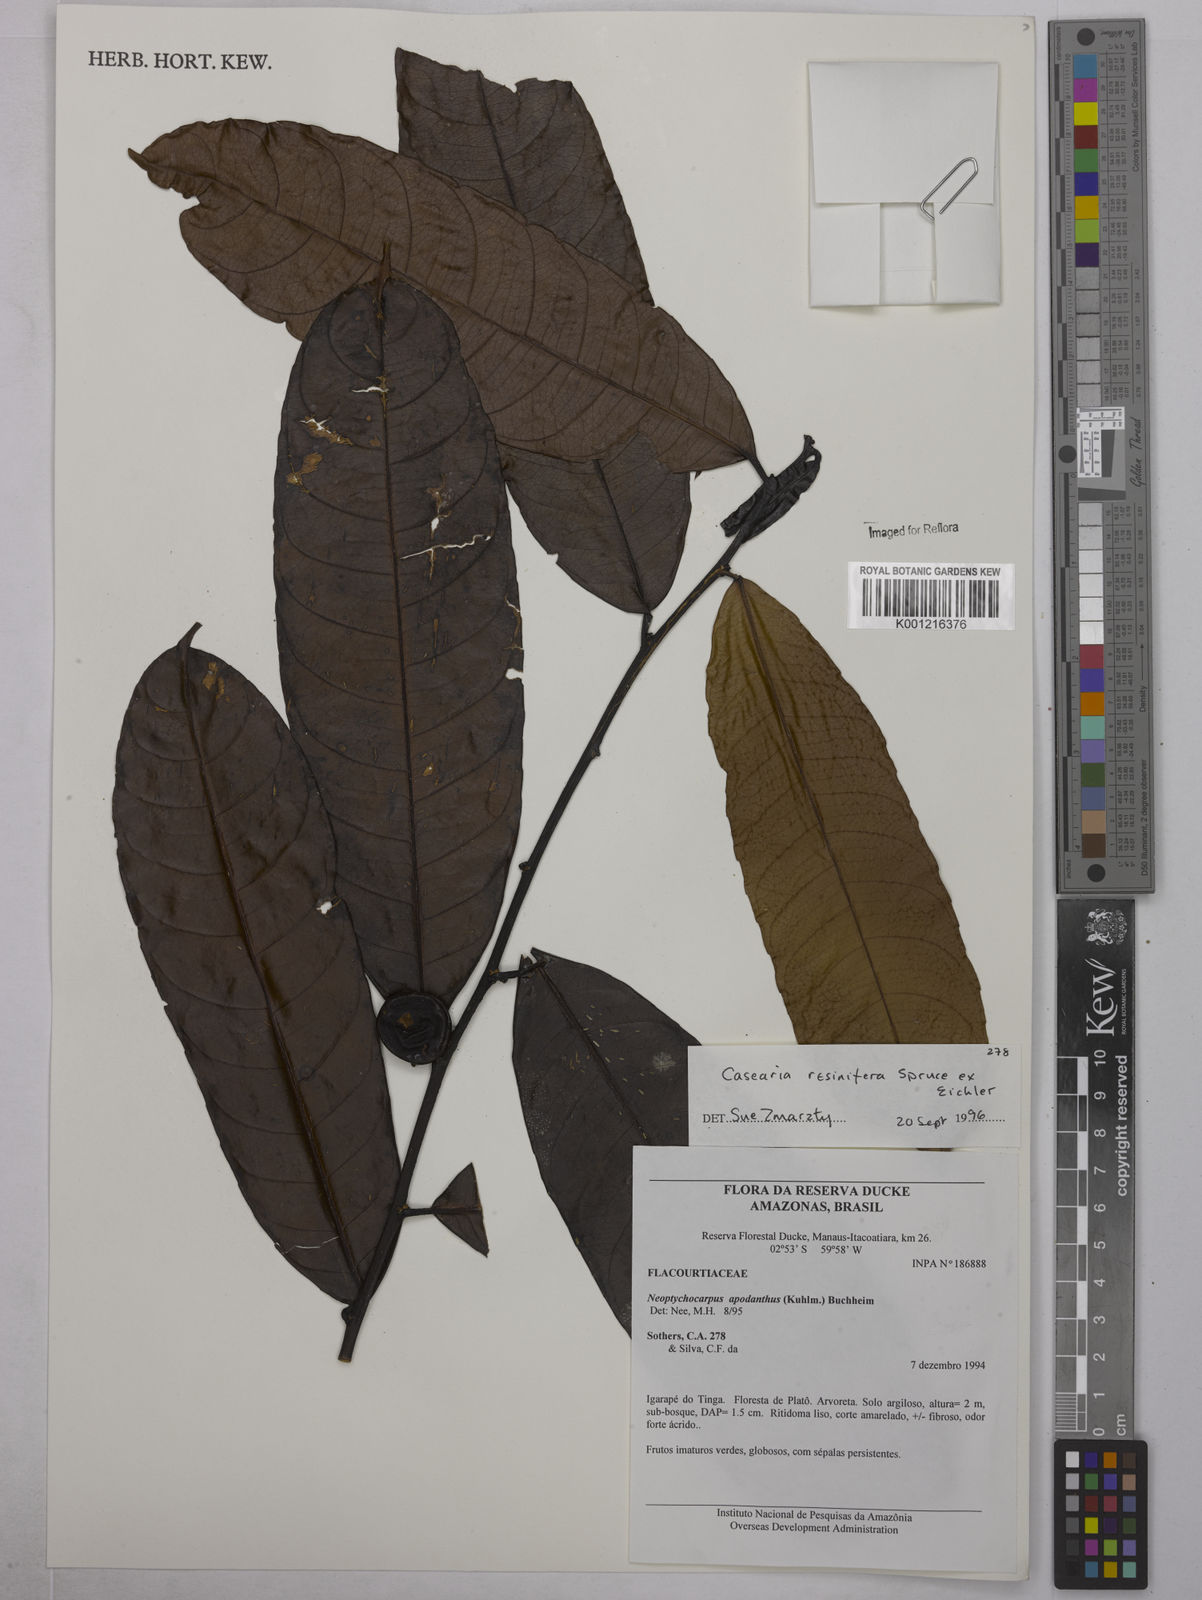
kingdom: Plantae
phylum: Tracheophyta
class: Magnoliopsida
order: Malpighiales
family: Salicaceae
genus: Casearia
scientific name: Casearia resinifera
